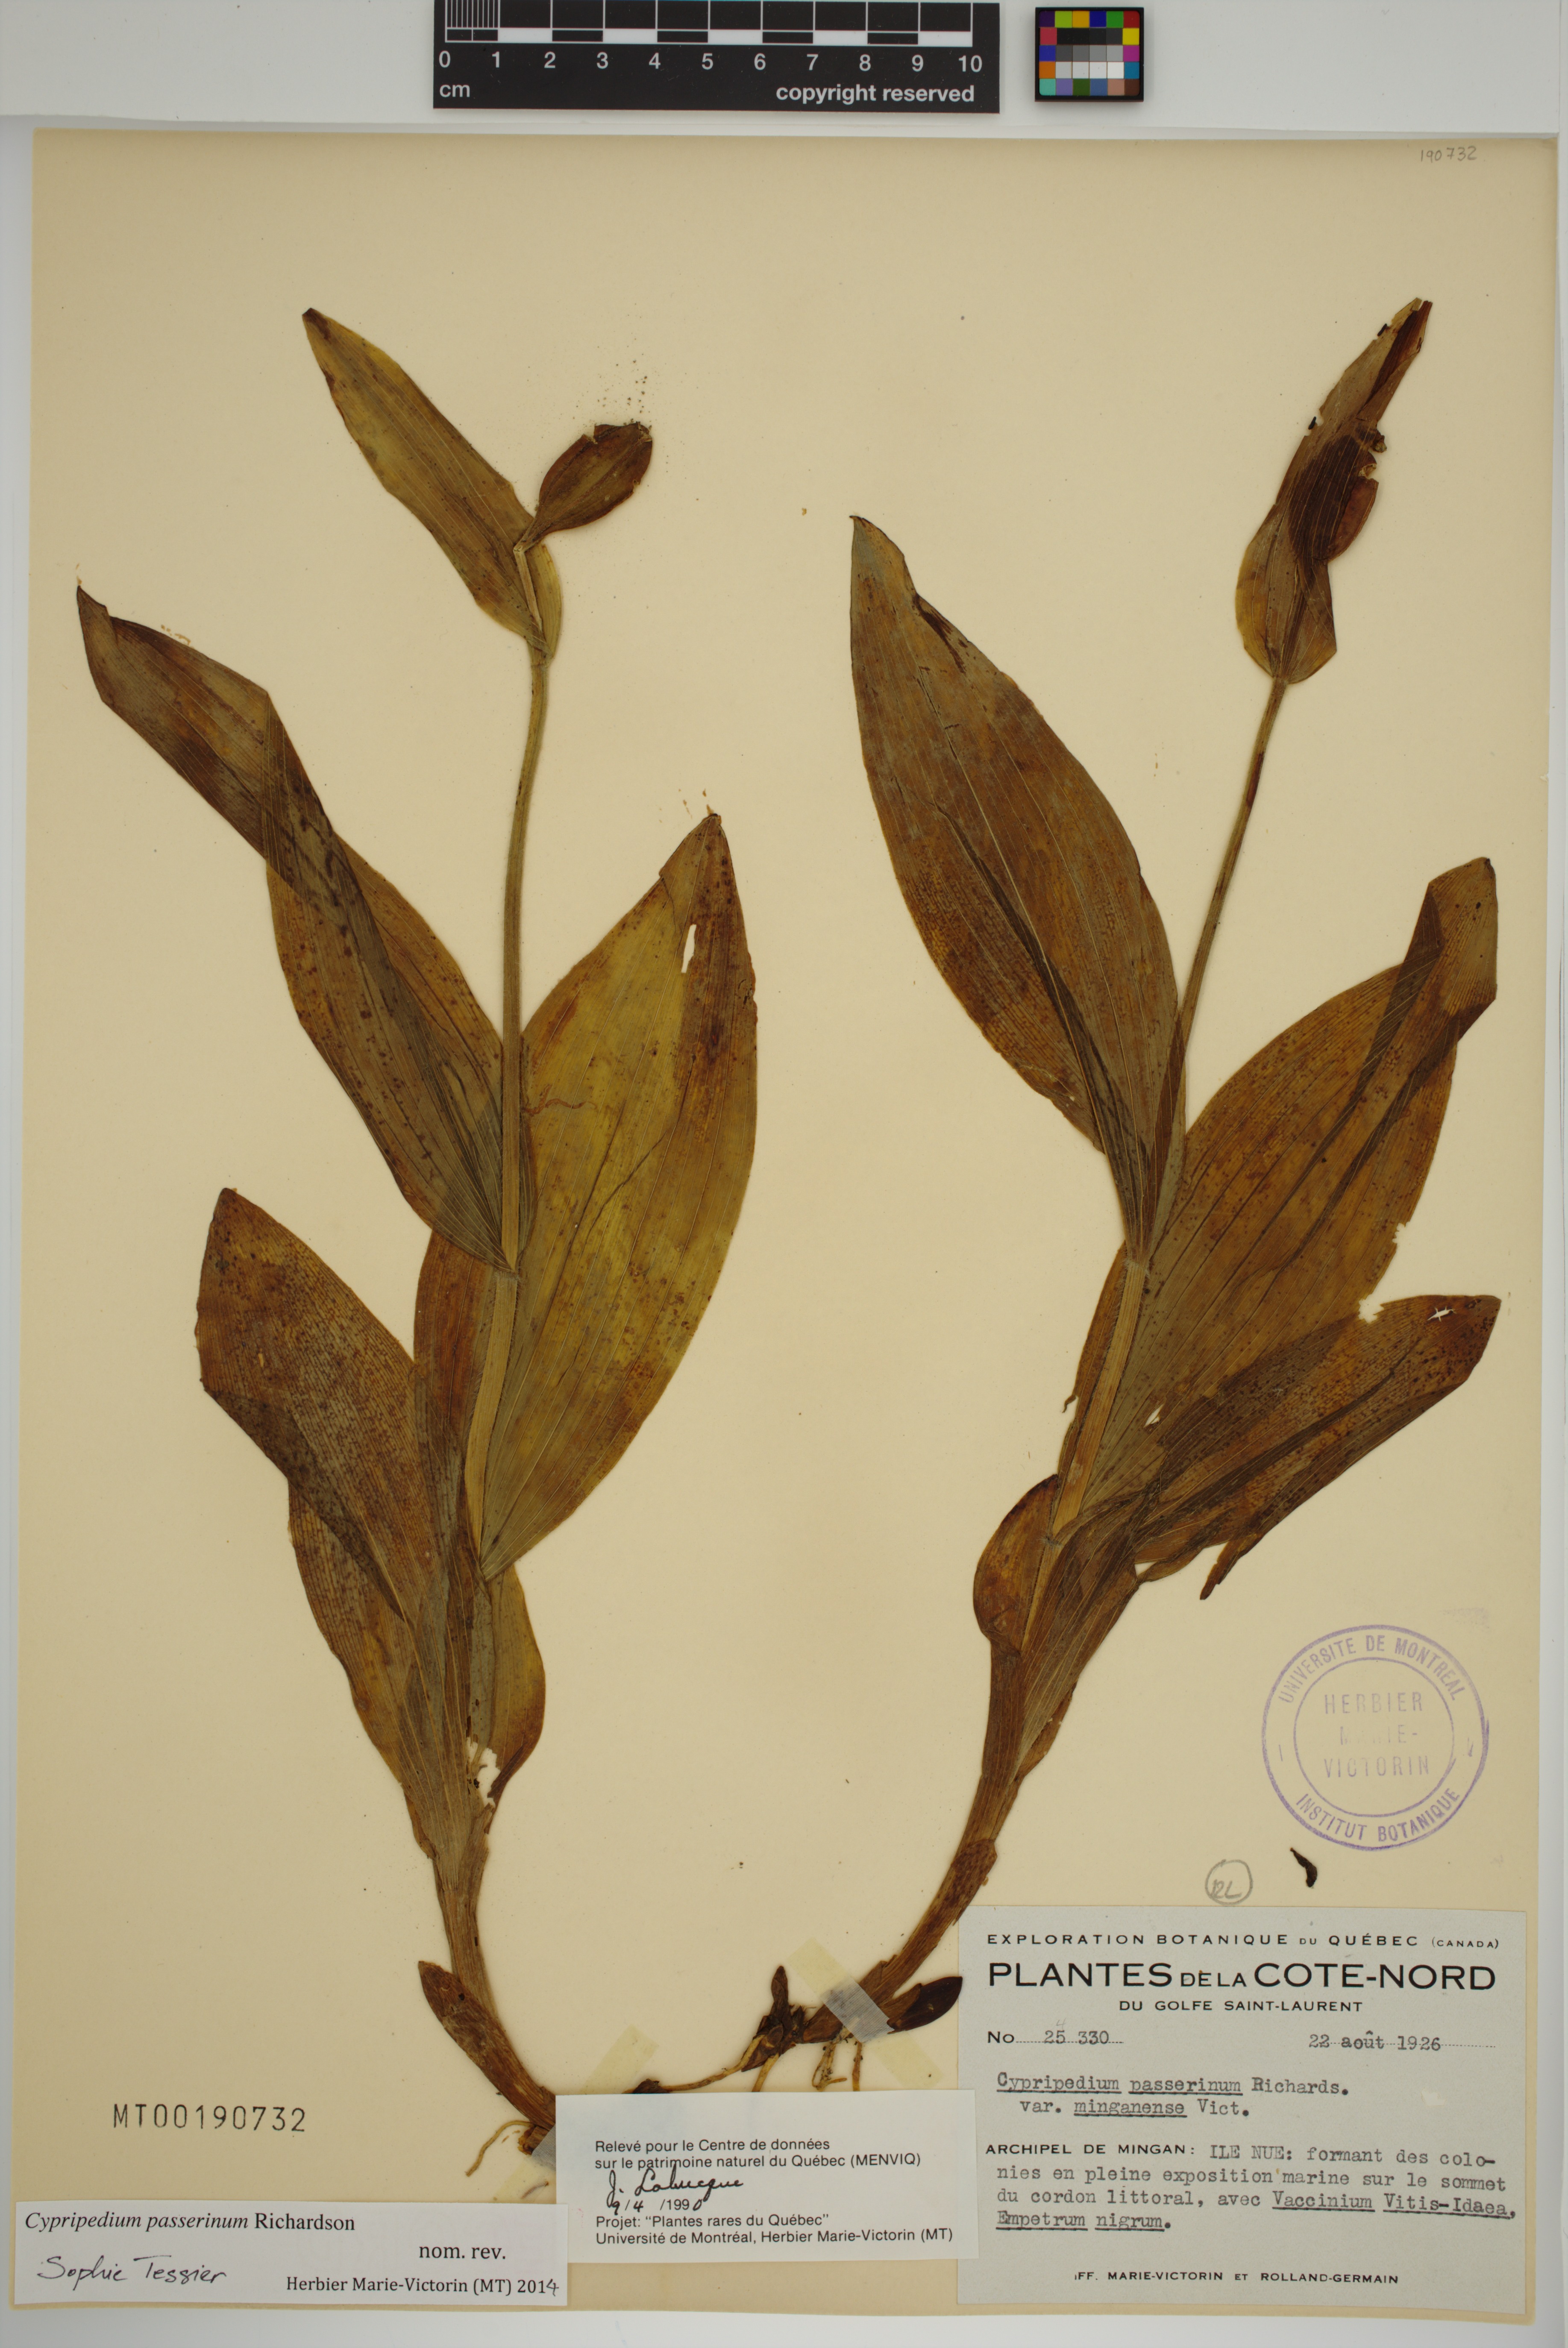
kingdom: Plantae
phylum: Tracheophyta
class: Liliopsida
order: Asparagales
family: Orchidaceae
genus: Cypripedium
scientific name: Cypripedium passerinum
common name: Sparrow's-egg lady's-slipper
